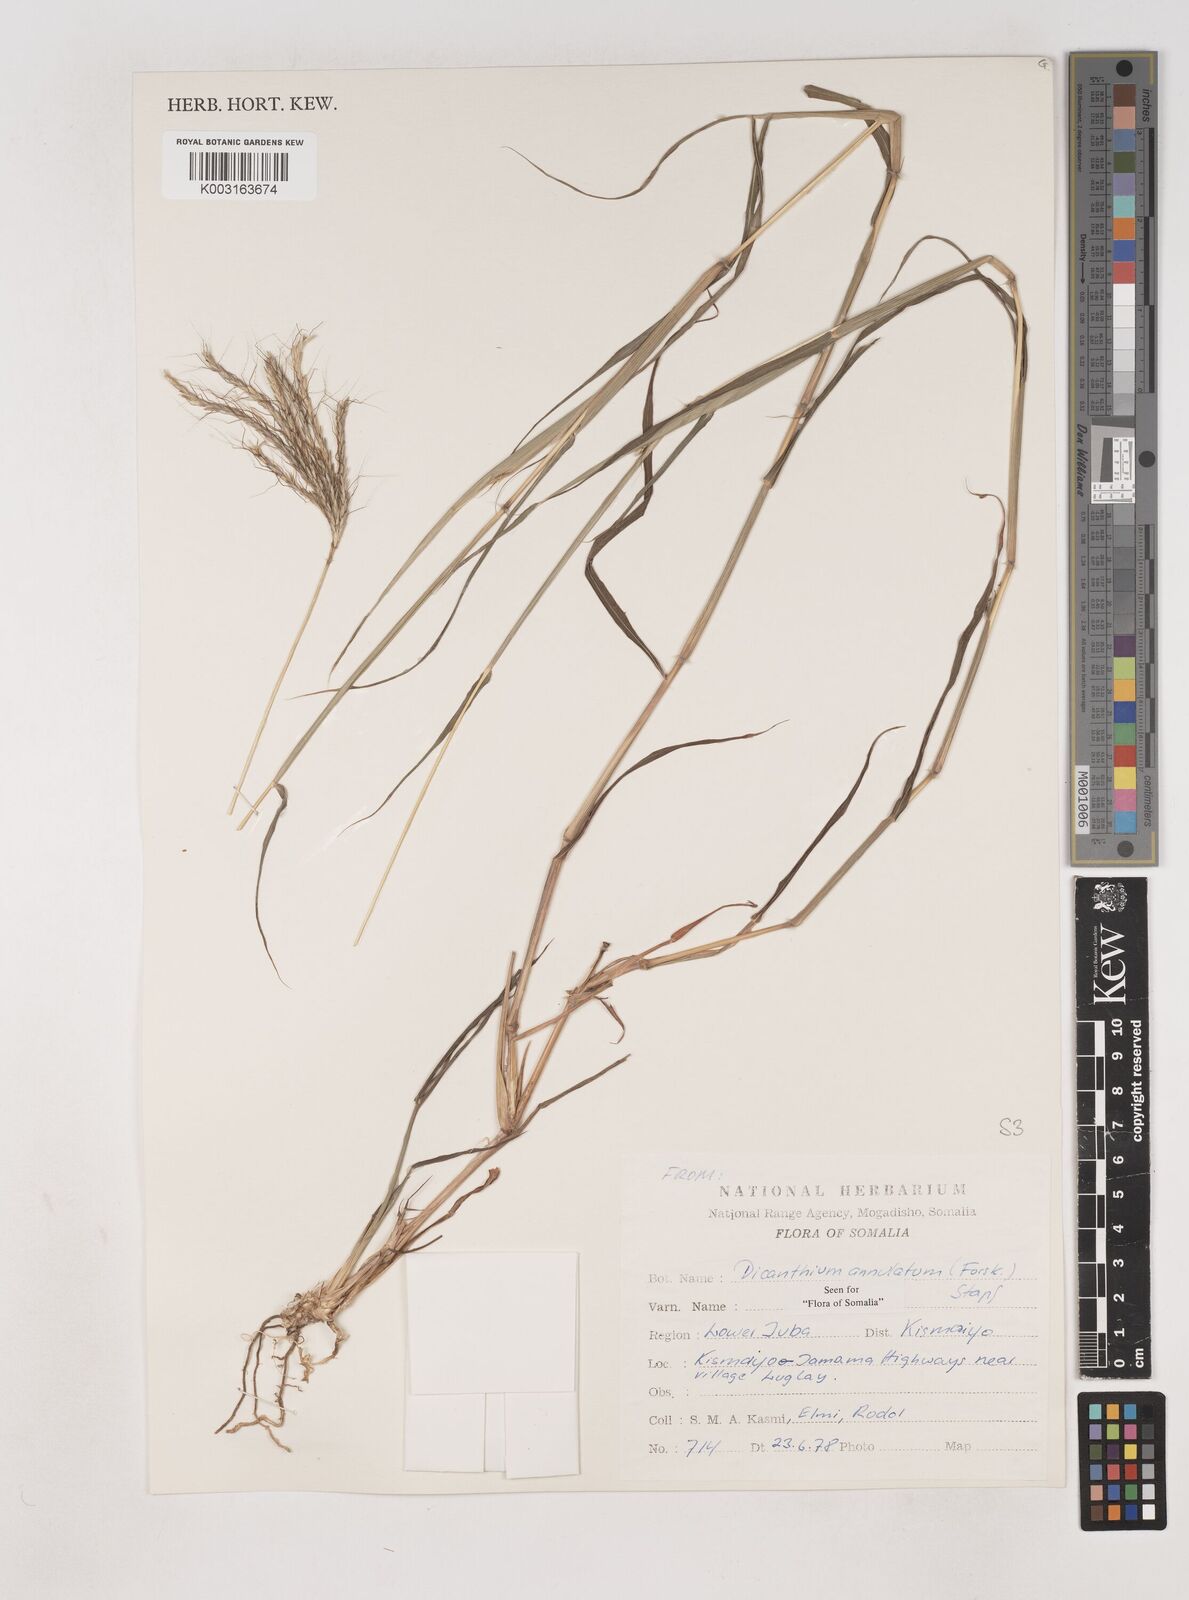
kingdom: Plantae
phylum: Tracheophyta
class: Liliopsida
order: Poales
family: Poaceae
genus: Dichanthium
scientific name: Dichanthium annulatum
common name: Kleberg's bluestem
